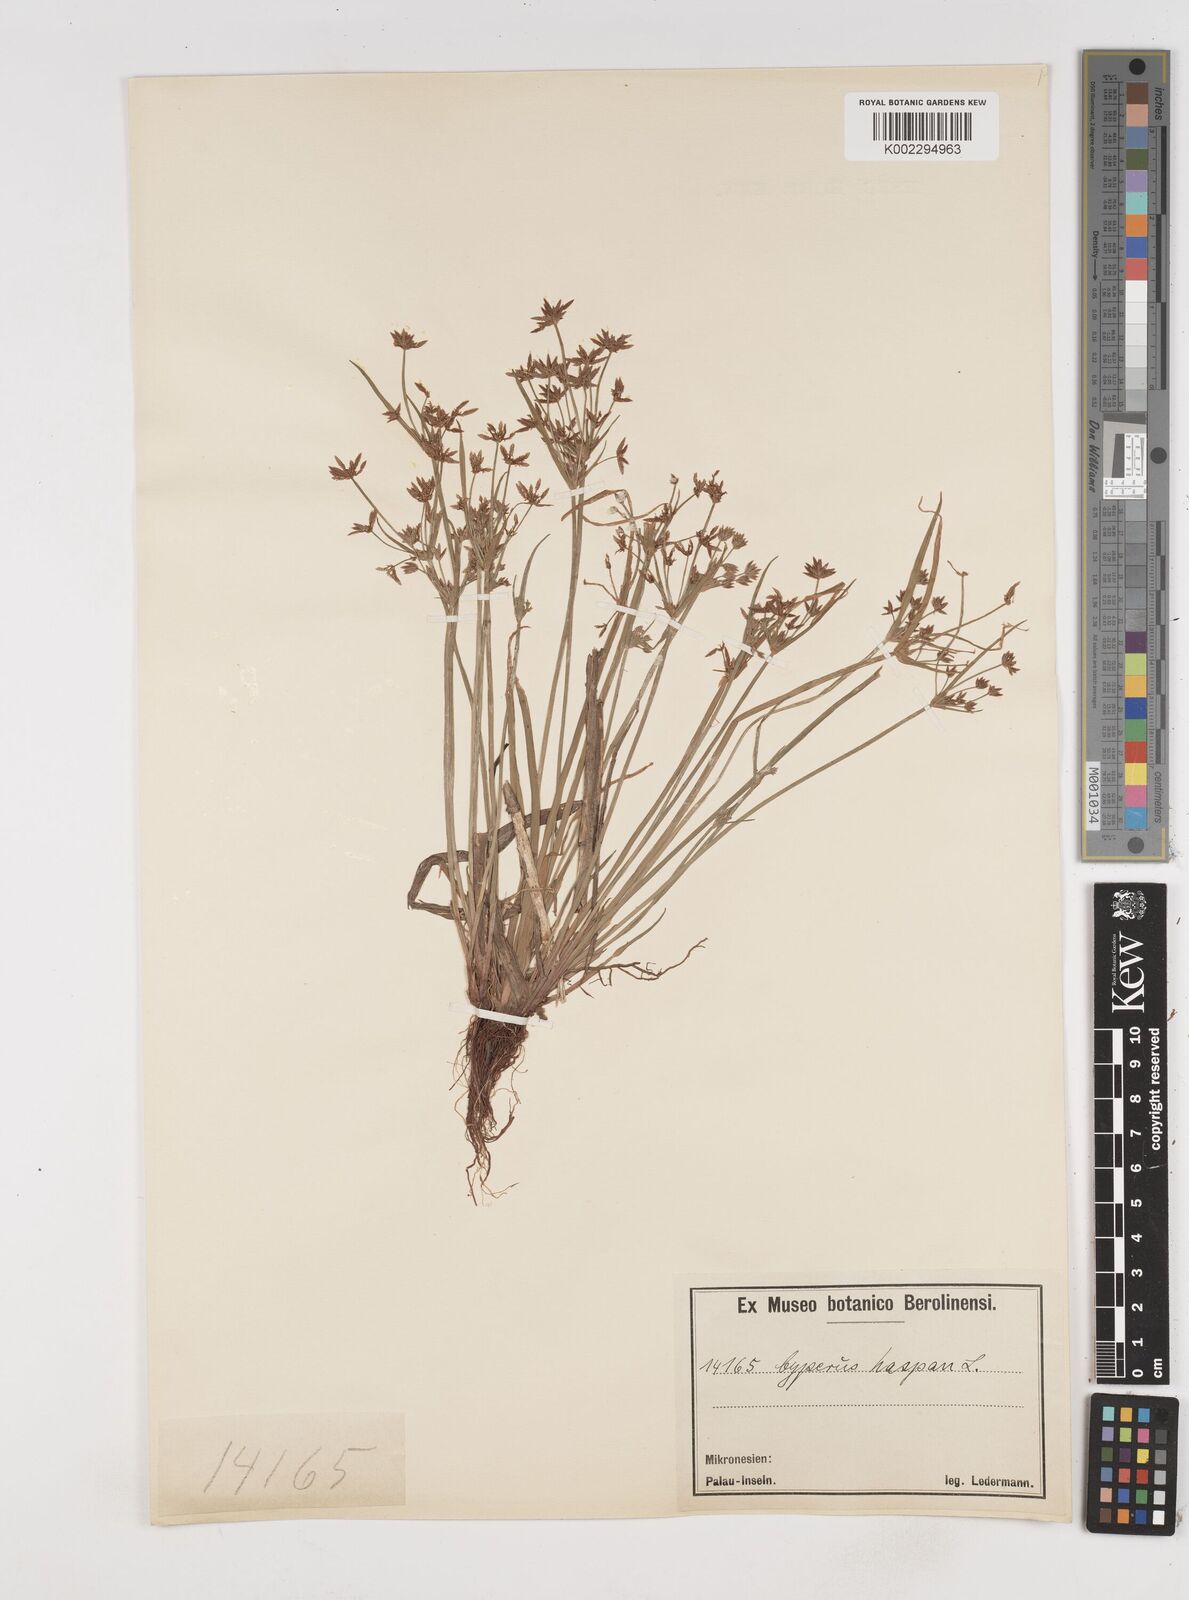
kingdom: Plantae
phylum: Tracheophyta
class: Liliopsida
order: Poales
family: Cyperaceae
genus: Cyperus
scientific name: Cyperus haspan
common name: Haspan flatsedge
